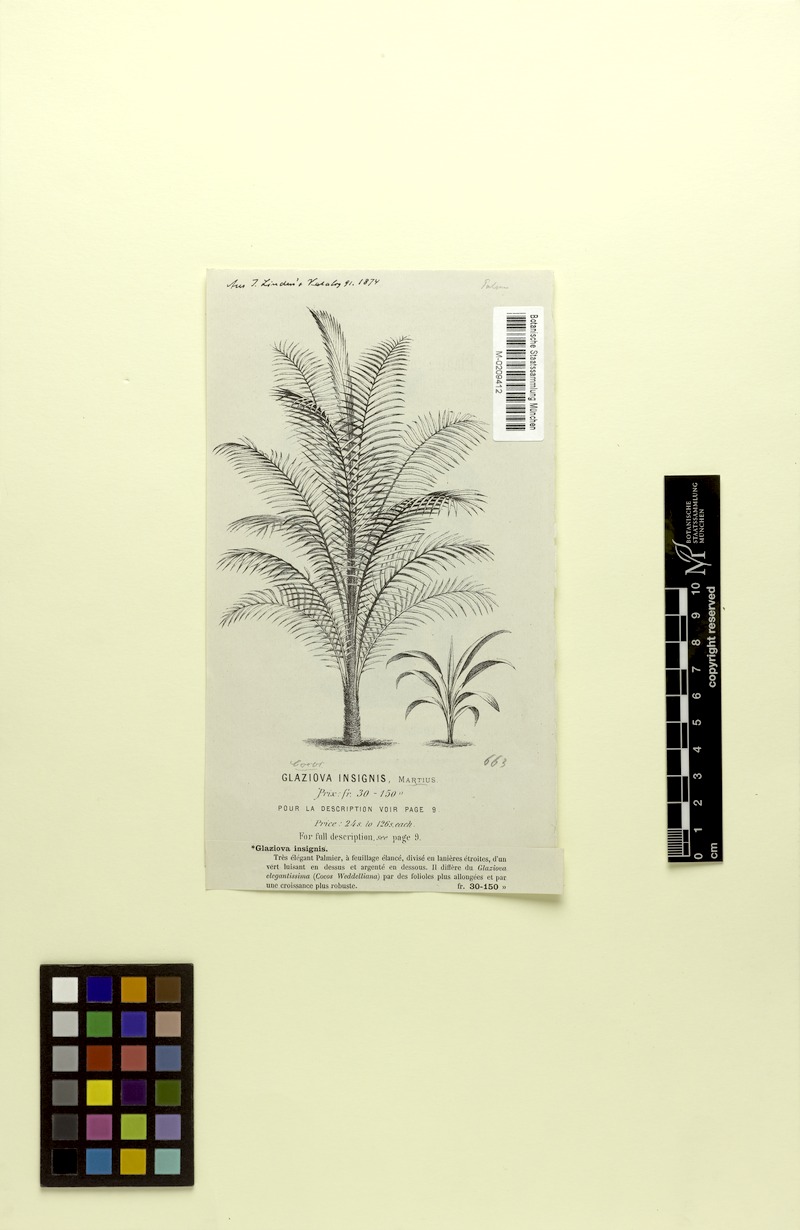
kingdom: Plantae
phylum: Tracheophyta
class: Liliopsida
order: Arecales
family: Arecaceae
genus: Butia
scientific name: Butia yatay
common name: Yatay palm
